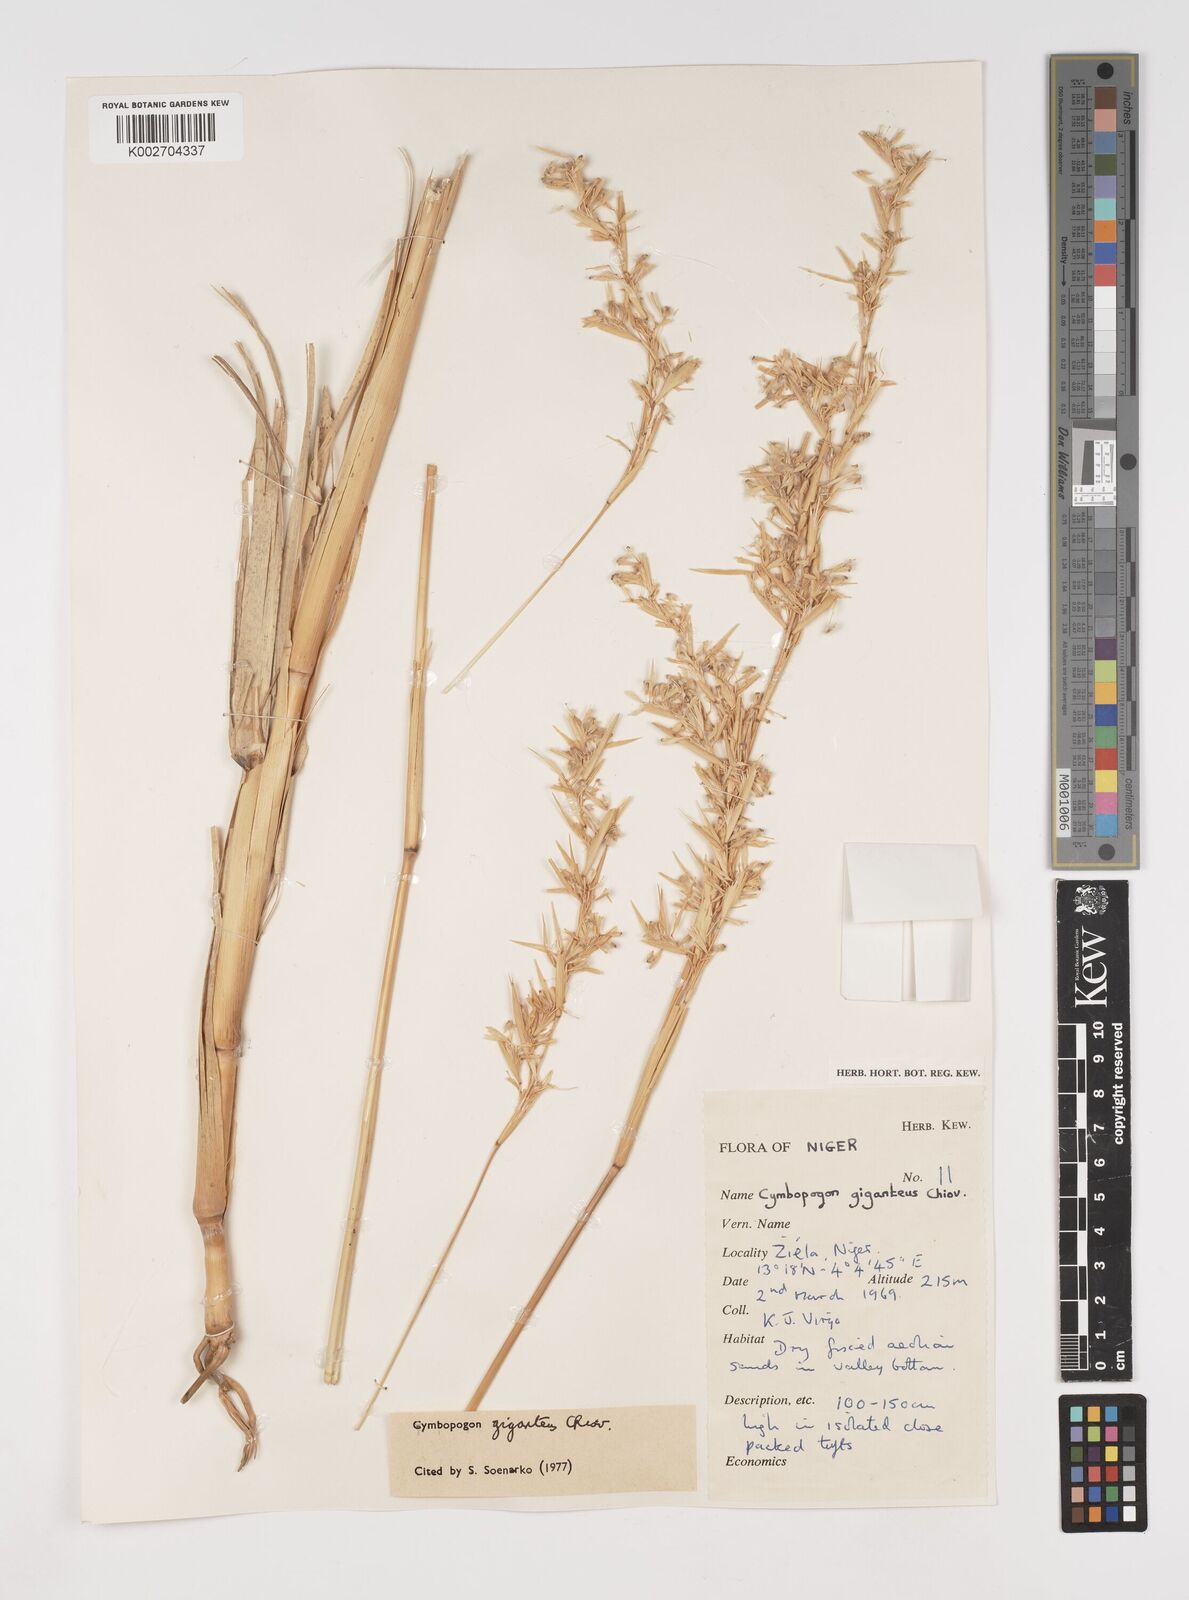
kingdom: Plantae
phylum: Tracheophyta
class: Liliopsida
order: Poales
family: Poaceae
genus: Cymbopogon
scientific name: Cymbopogon giganteus
